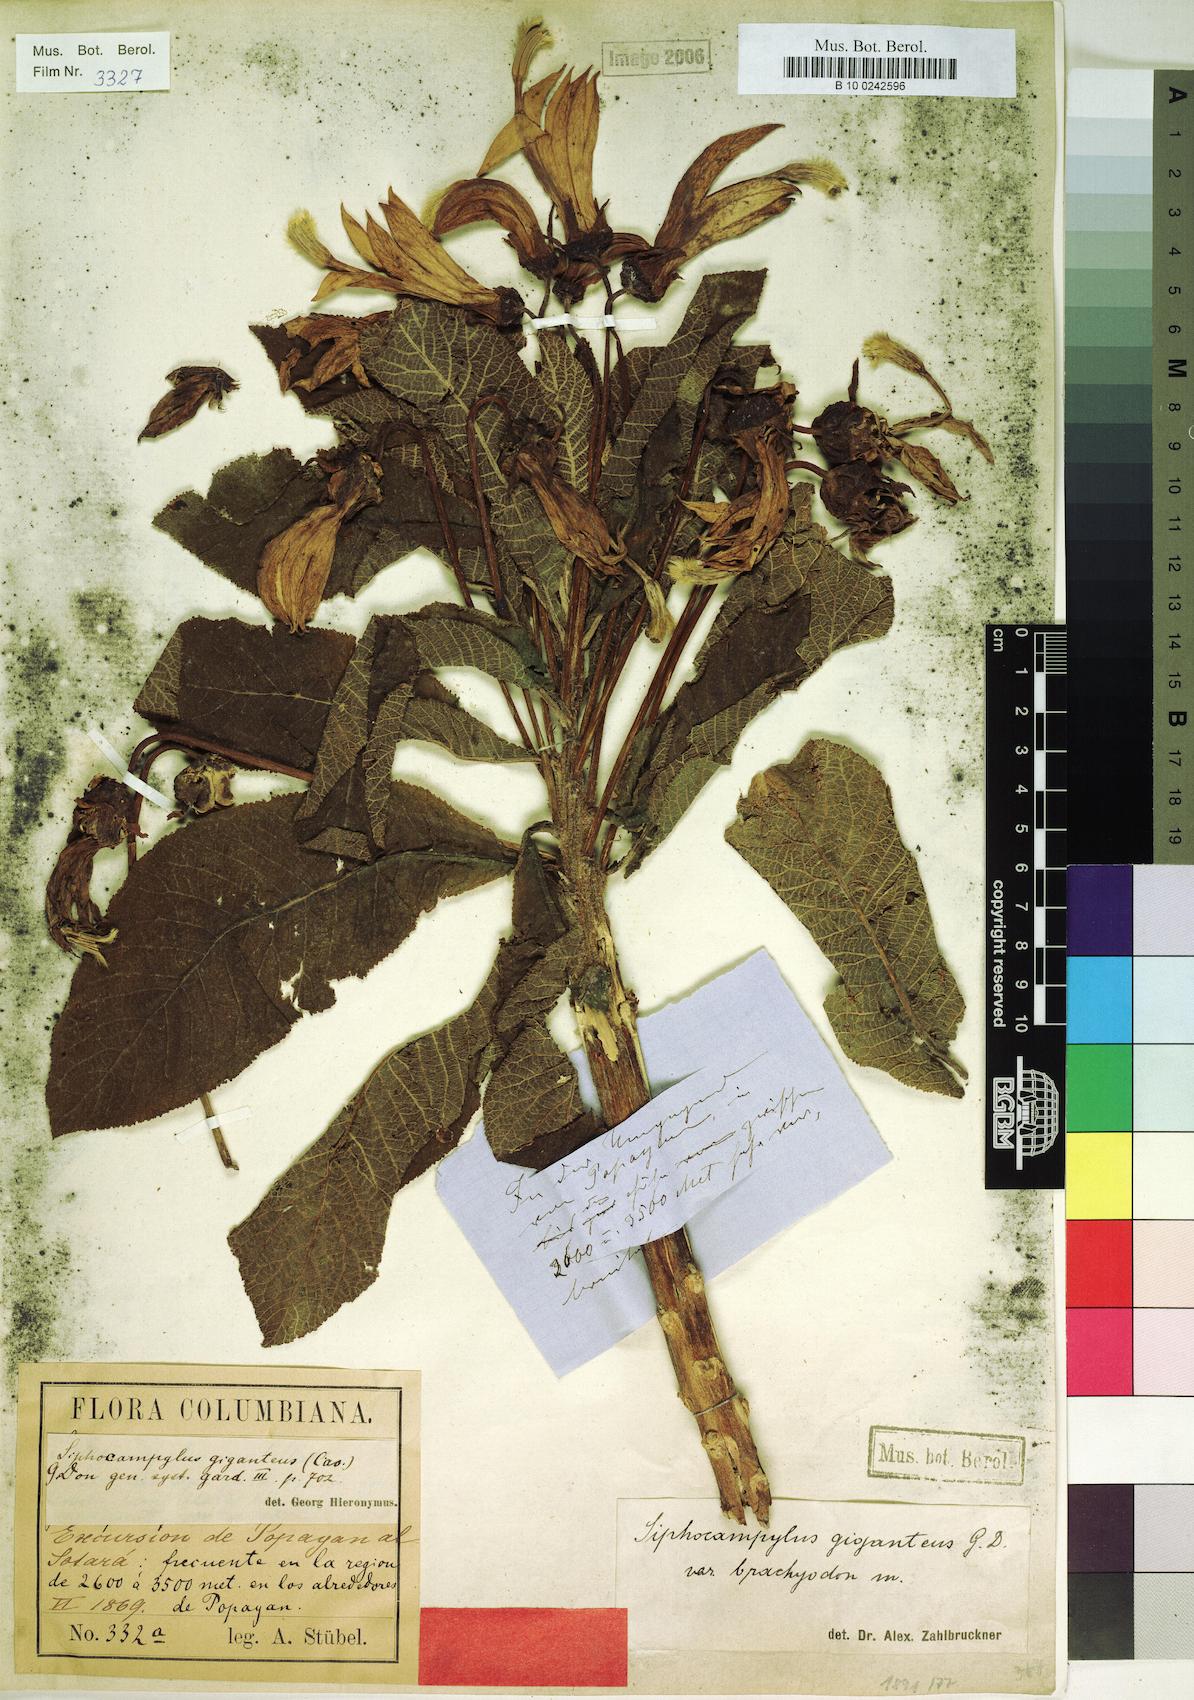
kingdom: Plantae
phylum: Tracheophyta
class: Magnoliopsida
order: Asterales
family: Campanulaceae
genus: Siphocampylus
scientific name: Siphocampylus giganteus
